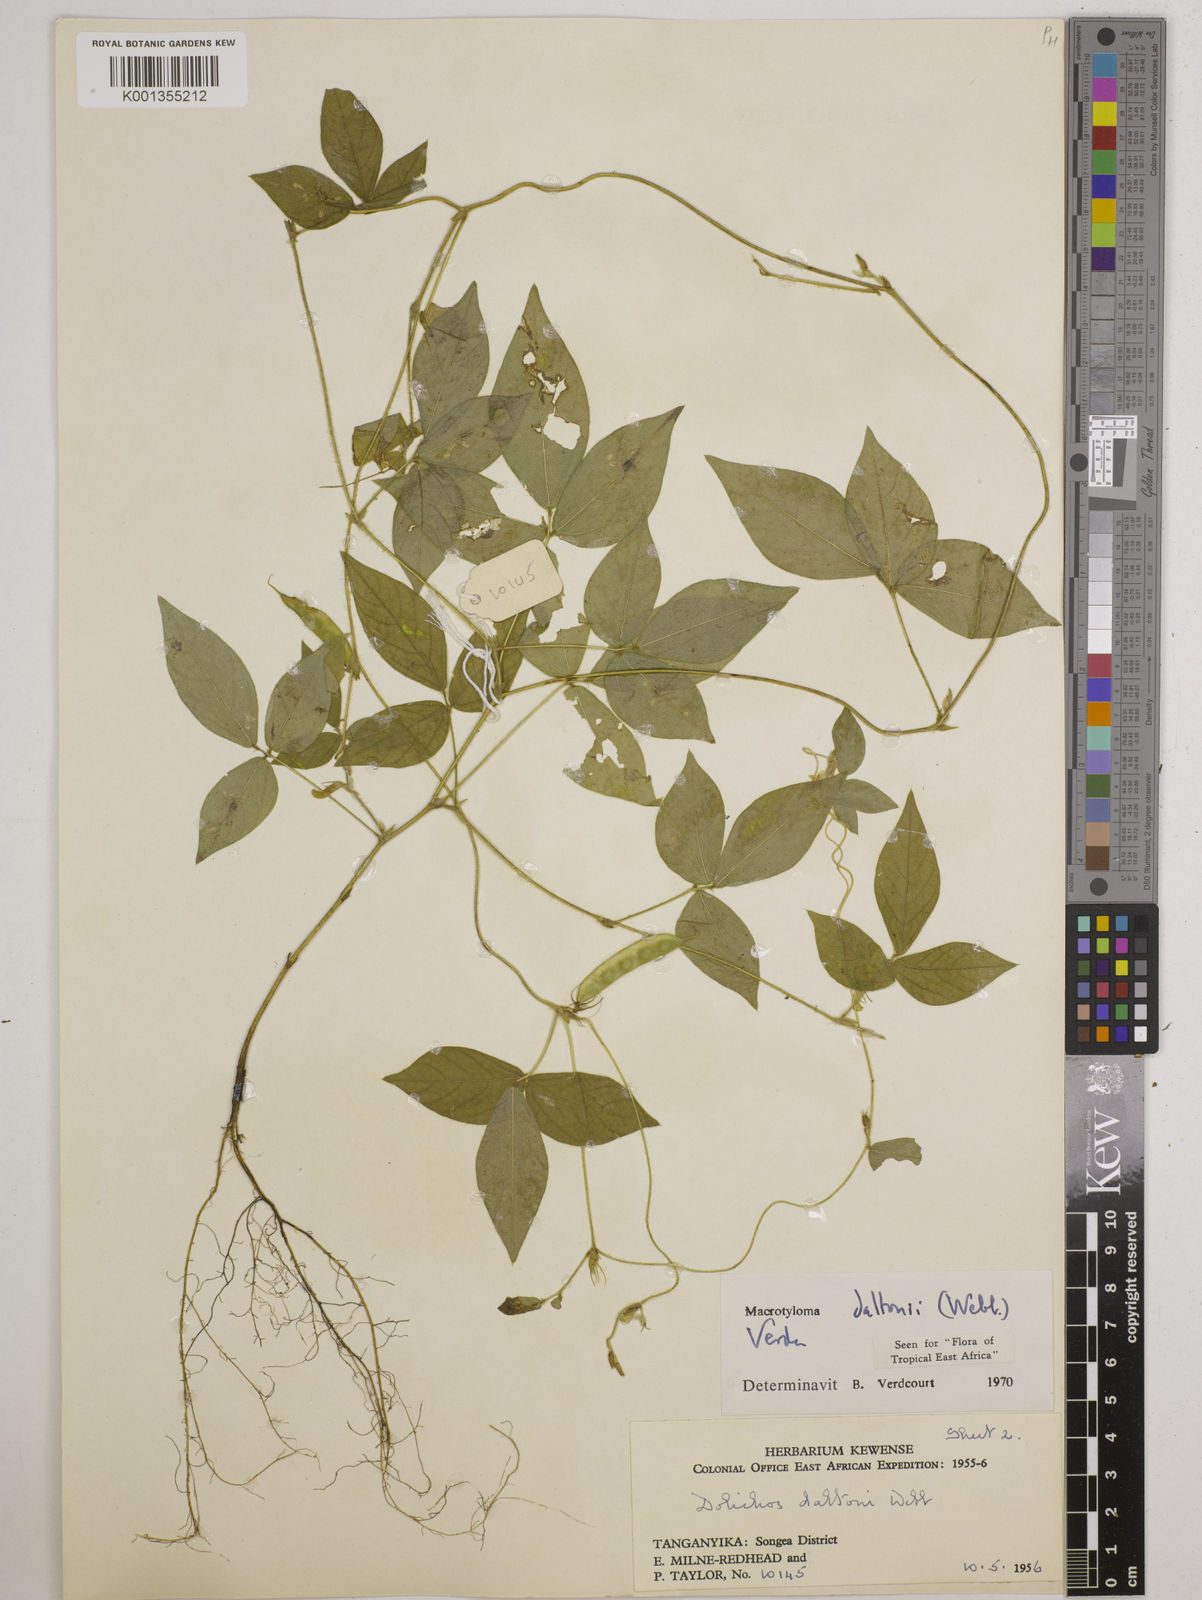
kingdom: Plantae
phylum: Tracheophyta
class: Magnoliopsida
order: Fabales
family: Fabaceae
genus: Macrotyloma
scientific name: Macrotyloma daltonii
